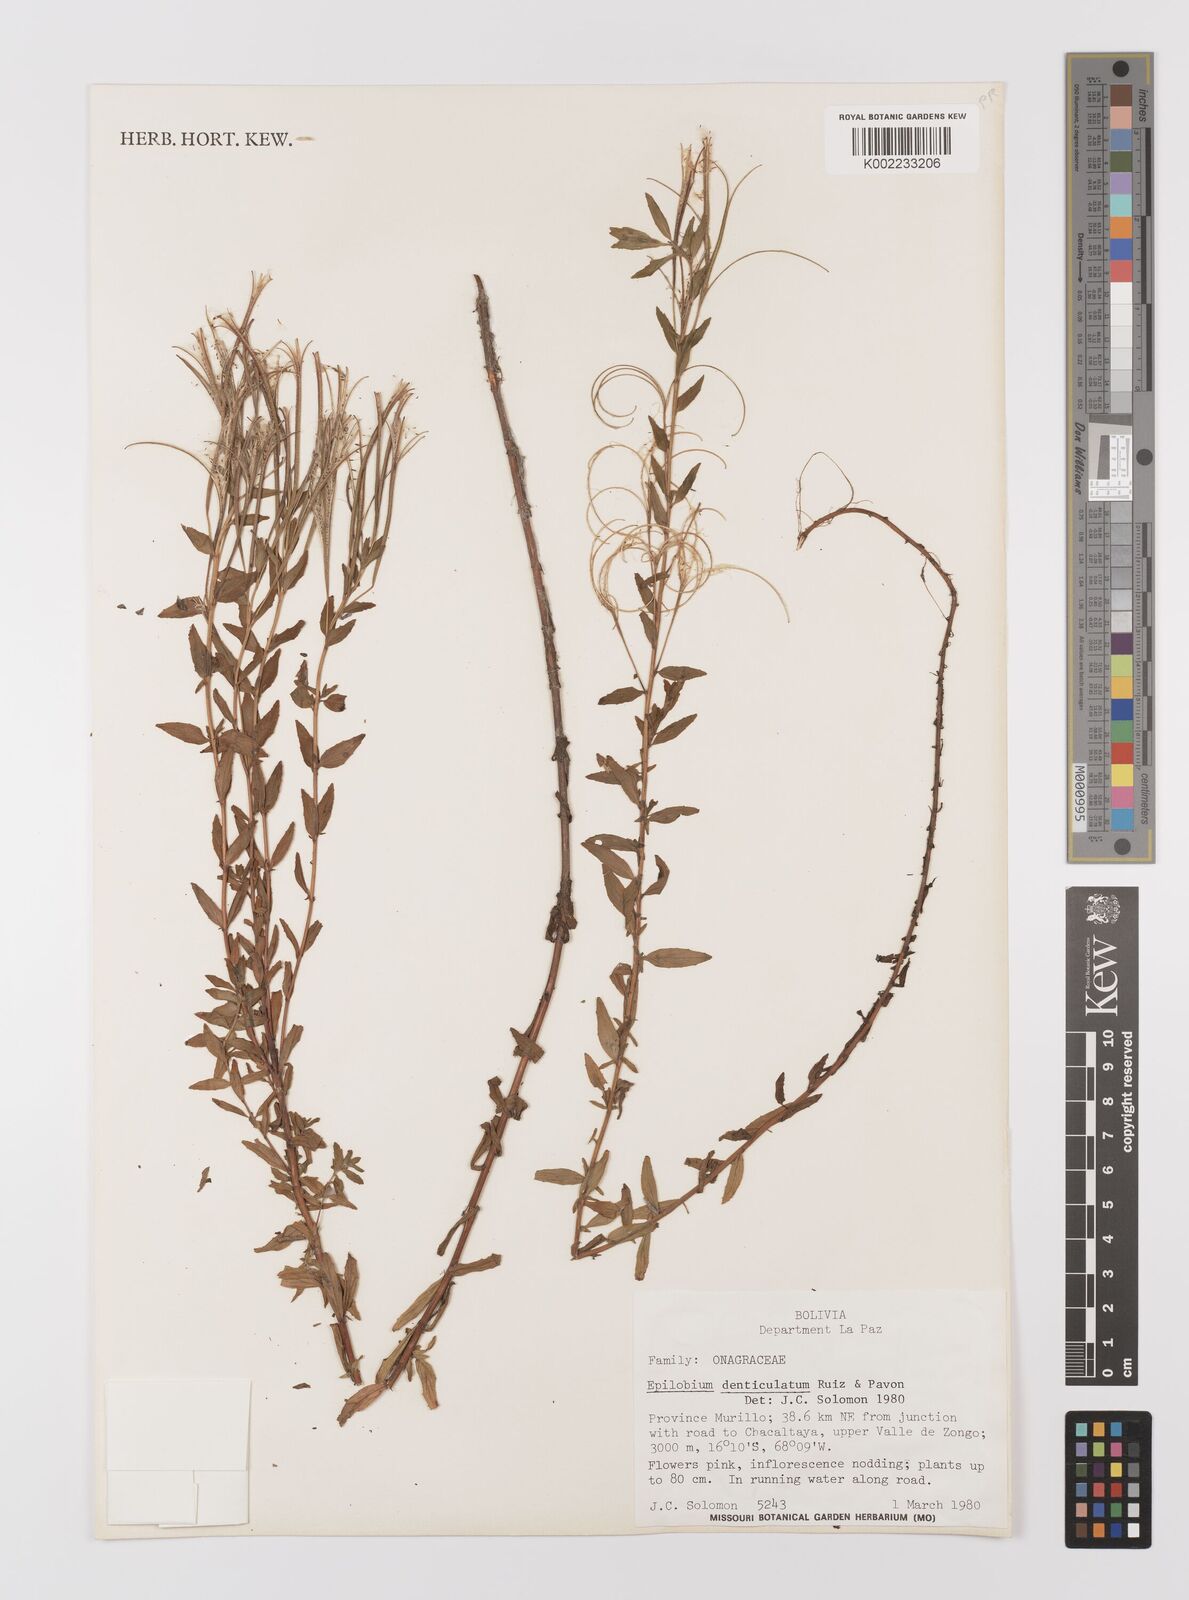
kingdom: Plantae
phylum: Tracheophyta
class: Magnoliopsida
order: Myrtales
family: Onagraceae
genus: Epilobium
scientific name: Epilobium denticulatum
